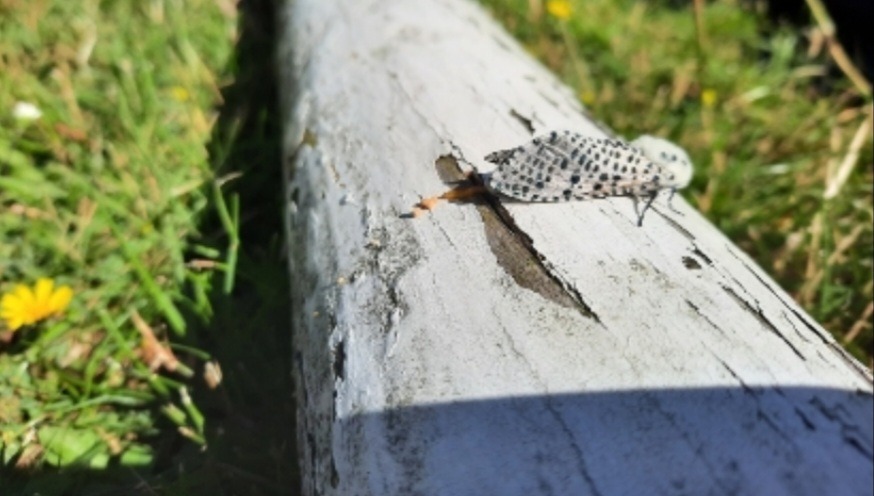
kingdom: Animalia
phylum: Arthropoda
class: Insecta
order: Lepidoptera
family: Cossidae
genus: Zeuzera
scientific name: Zeuzera pyrina
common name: Plettet træborer
